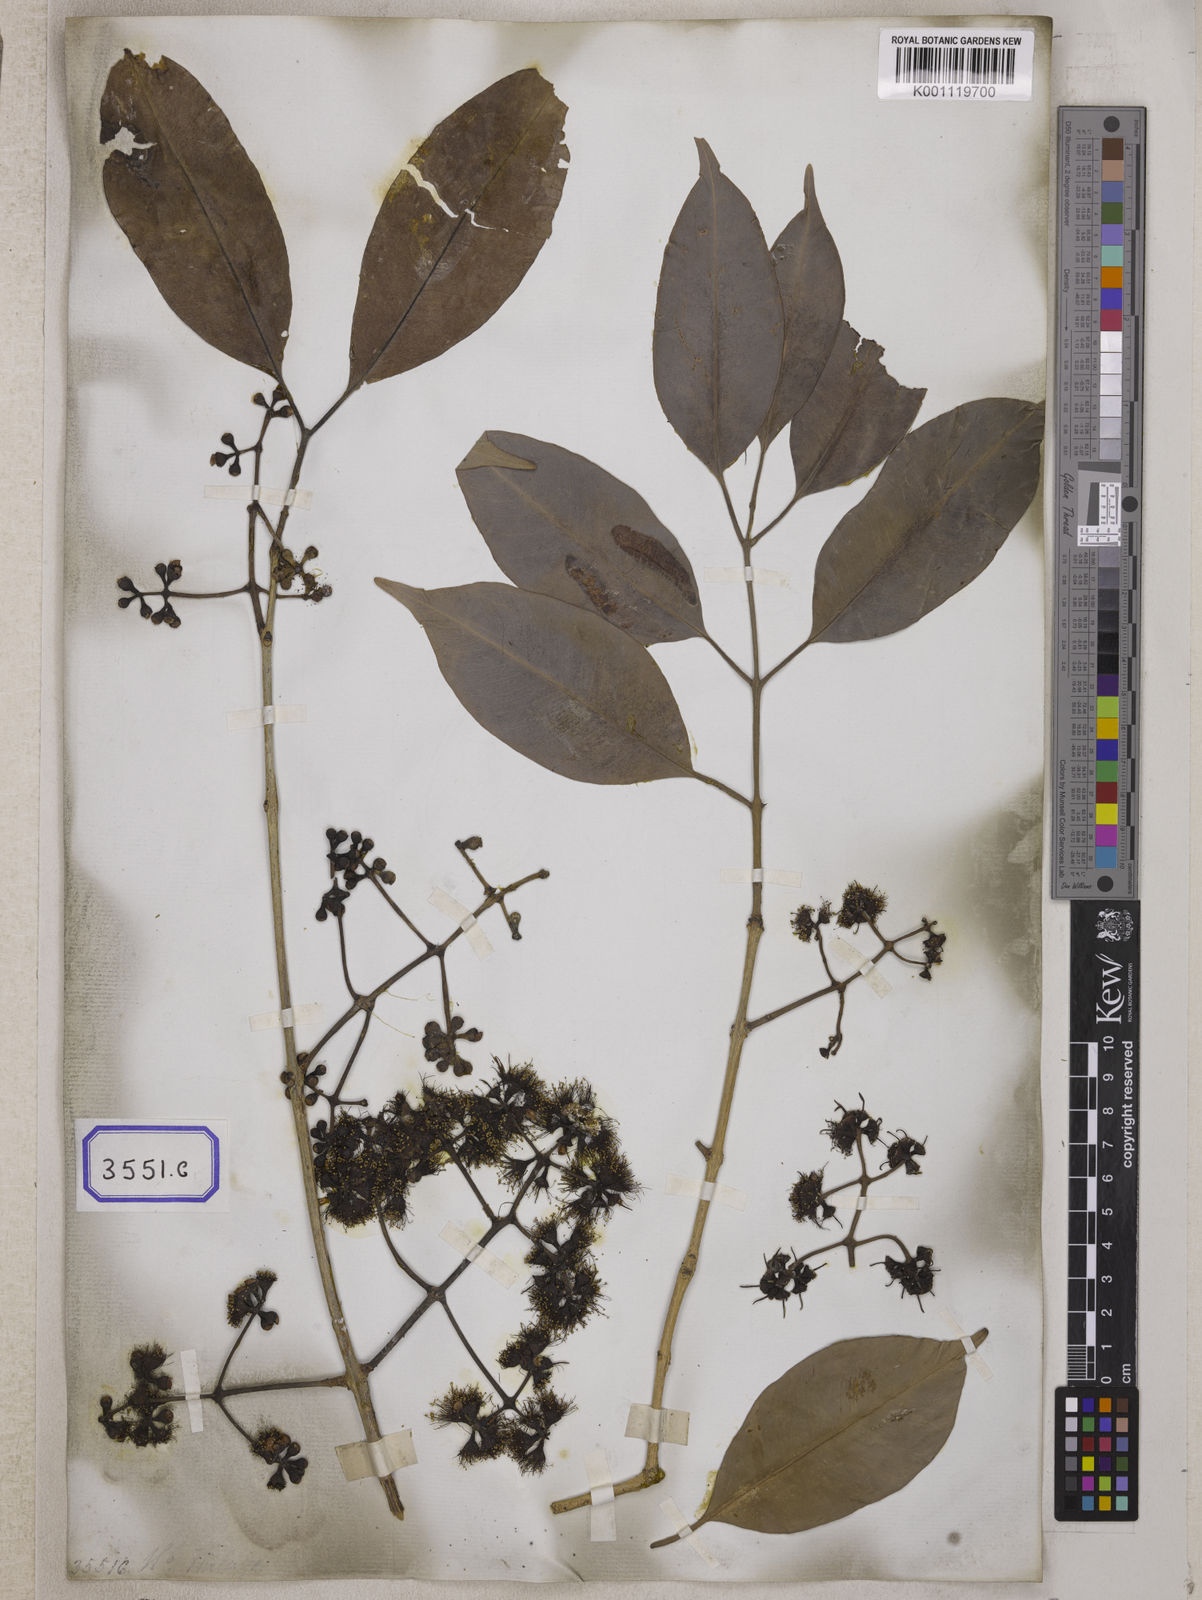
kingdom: Plantae
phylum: Tracheophyta
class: Magnoliopsida
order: Myrtales
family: Myrtaceae
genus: Syzygium
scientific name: Syzygium nervosum
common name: Daly river satinash
